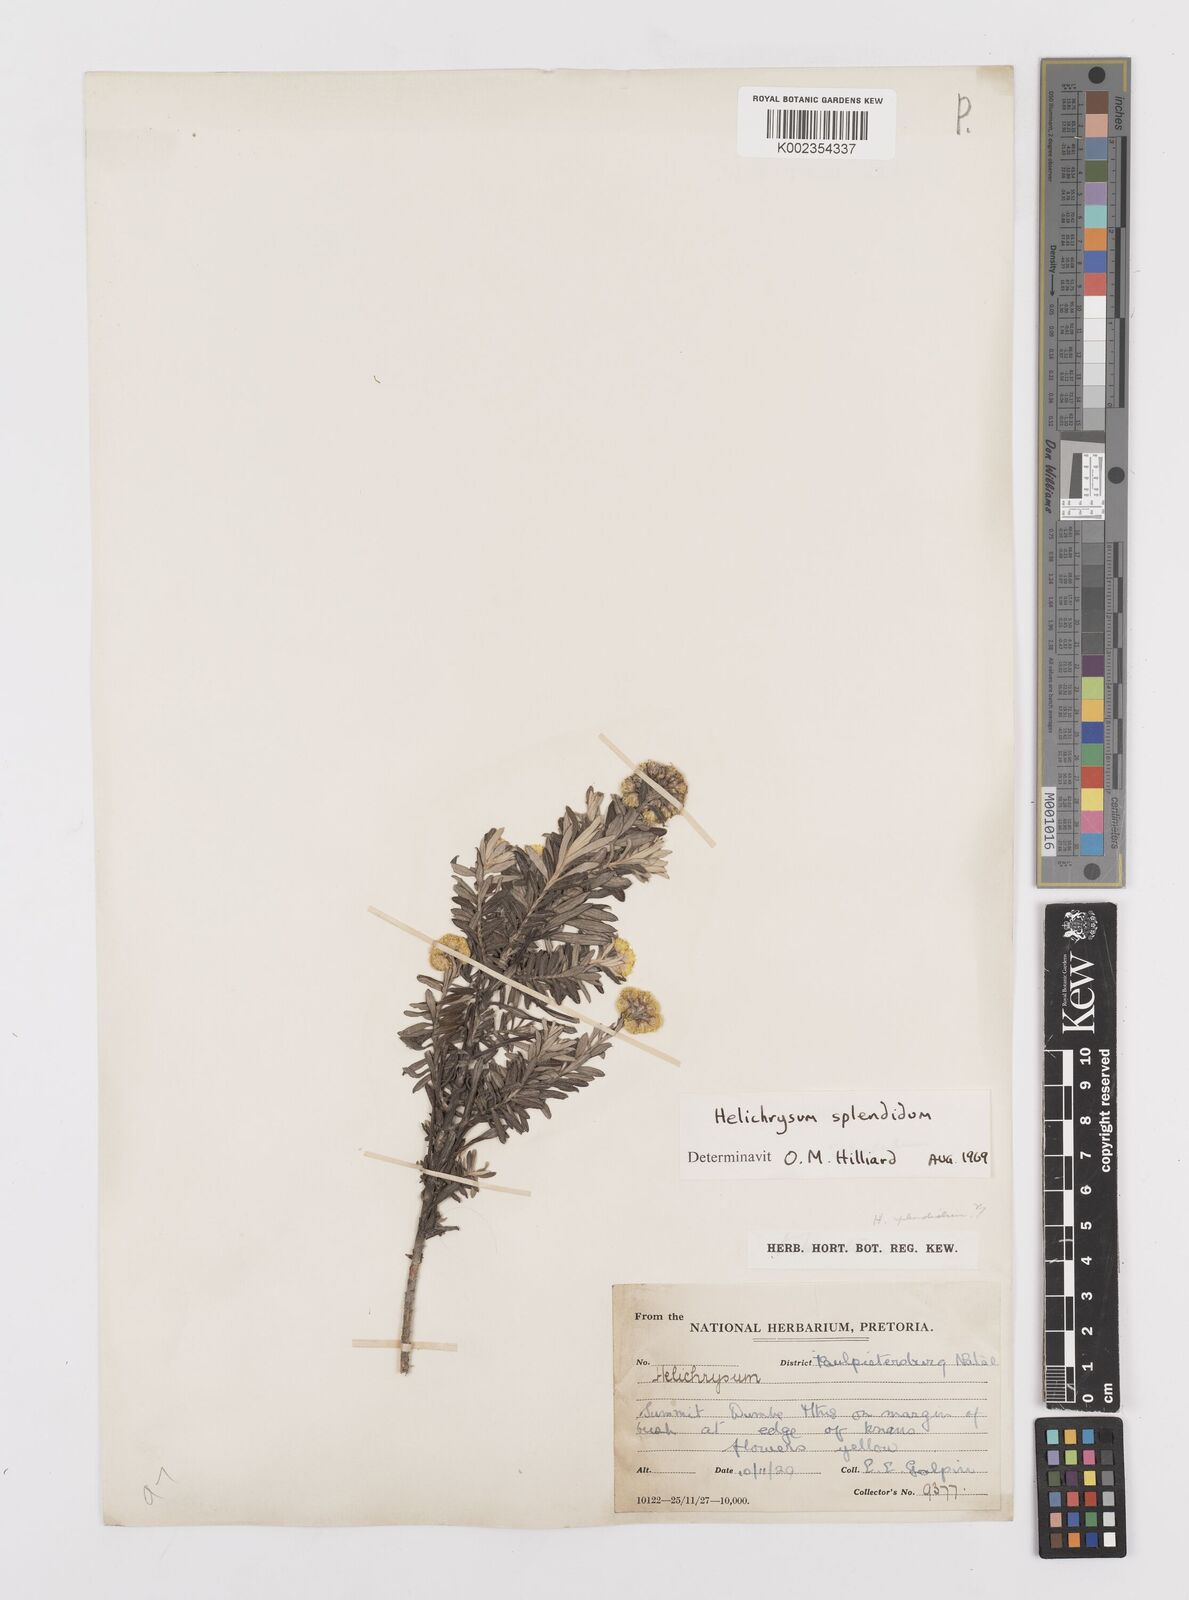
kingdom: Plantae
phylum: Tracheophyta
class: Magnoliopsida
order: Asterales
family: Asteraceae
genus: Helichrysum
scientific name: Helichrysum splendidum
